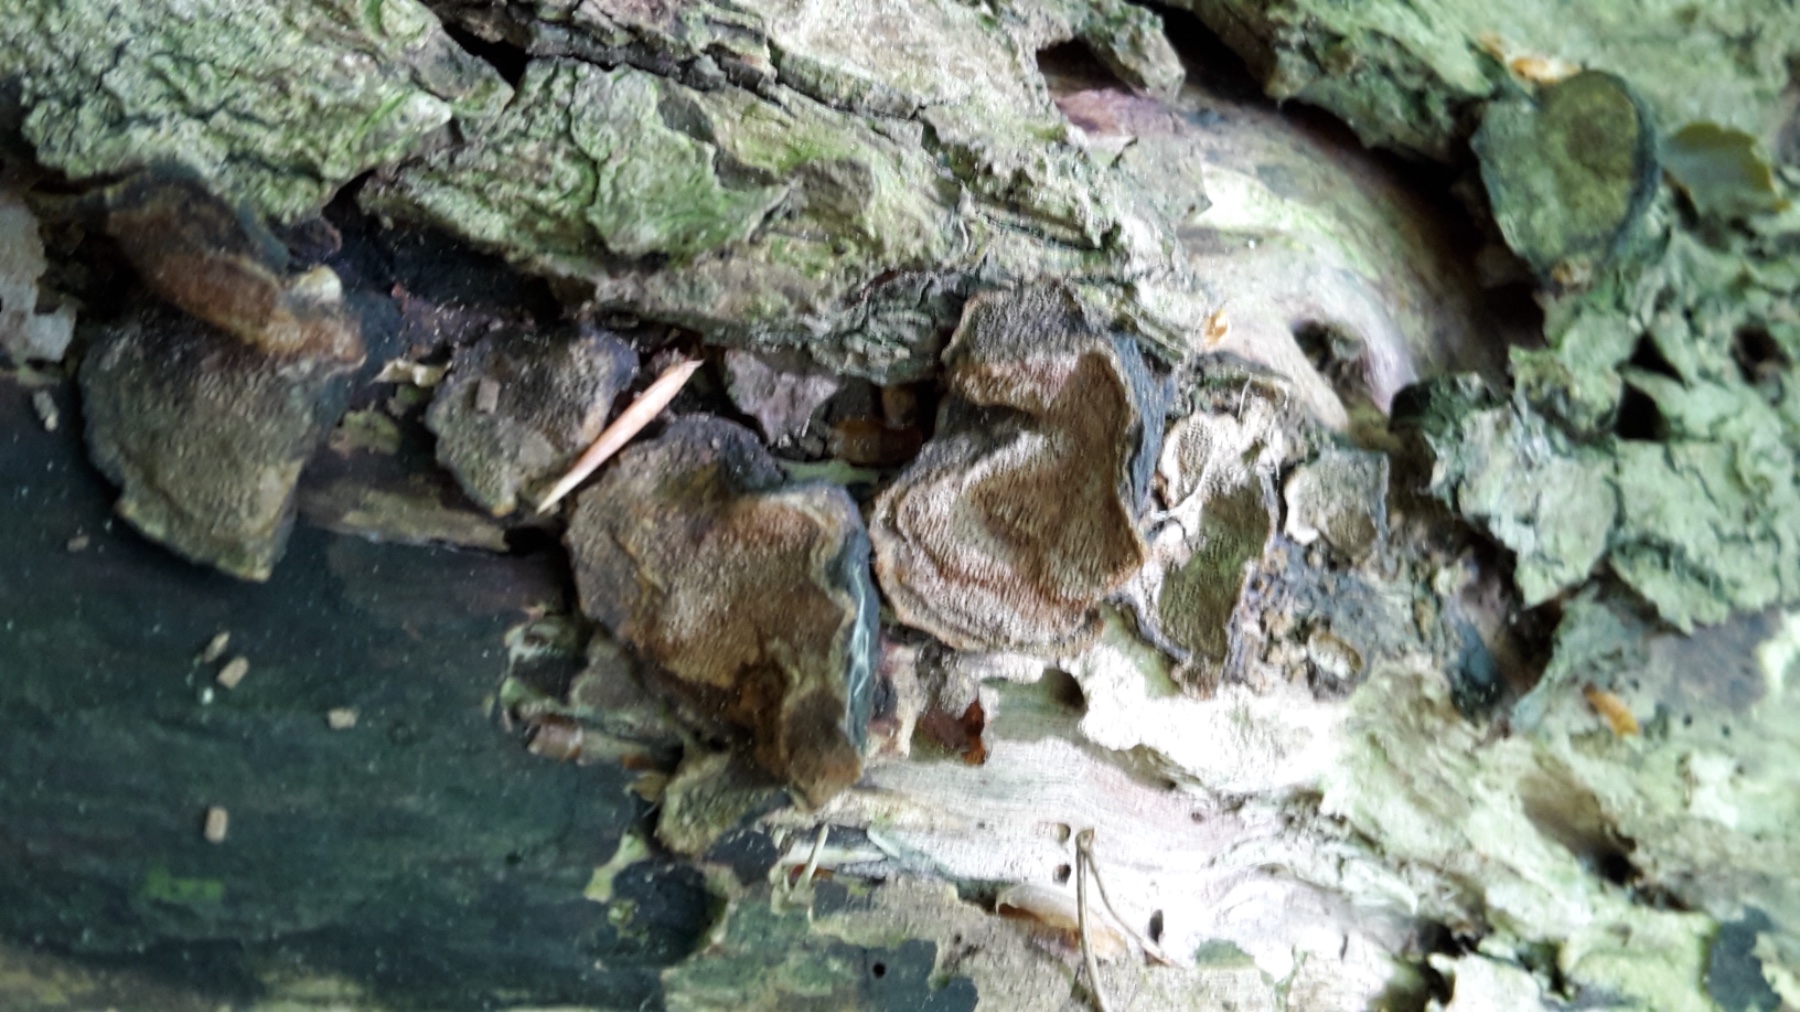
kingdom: Fungi
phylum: Basidiomycota
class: Agaricomycetes
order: Hymenochaetales
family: Hymenochaetaceae
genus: Phellinopsis
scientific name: Phellinopsis conchata
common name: pile-ildporesvamp
